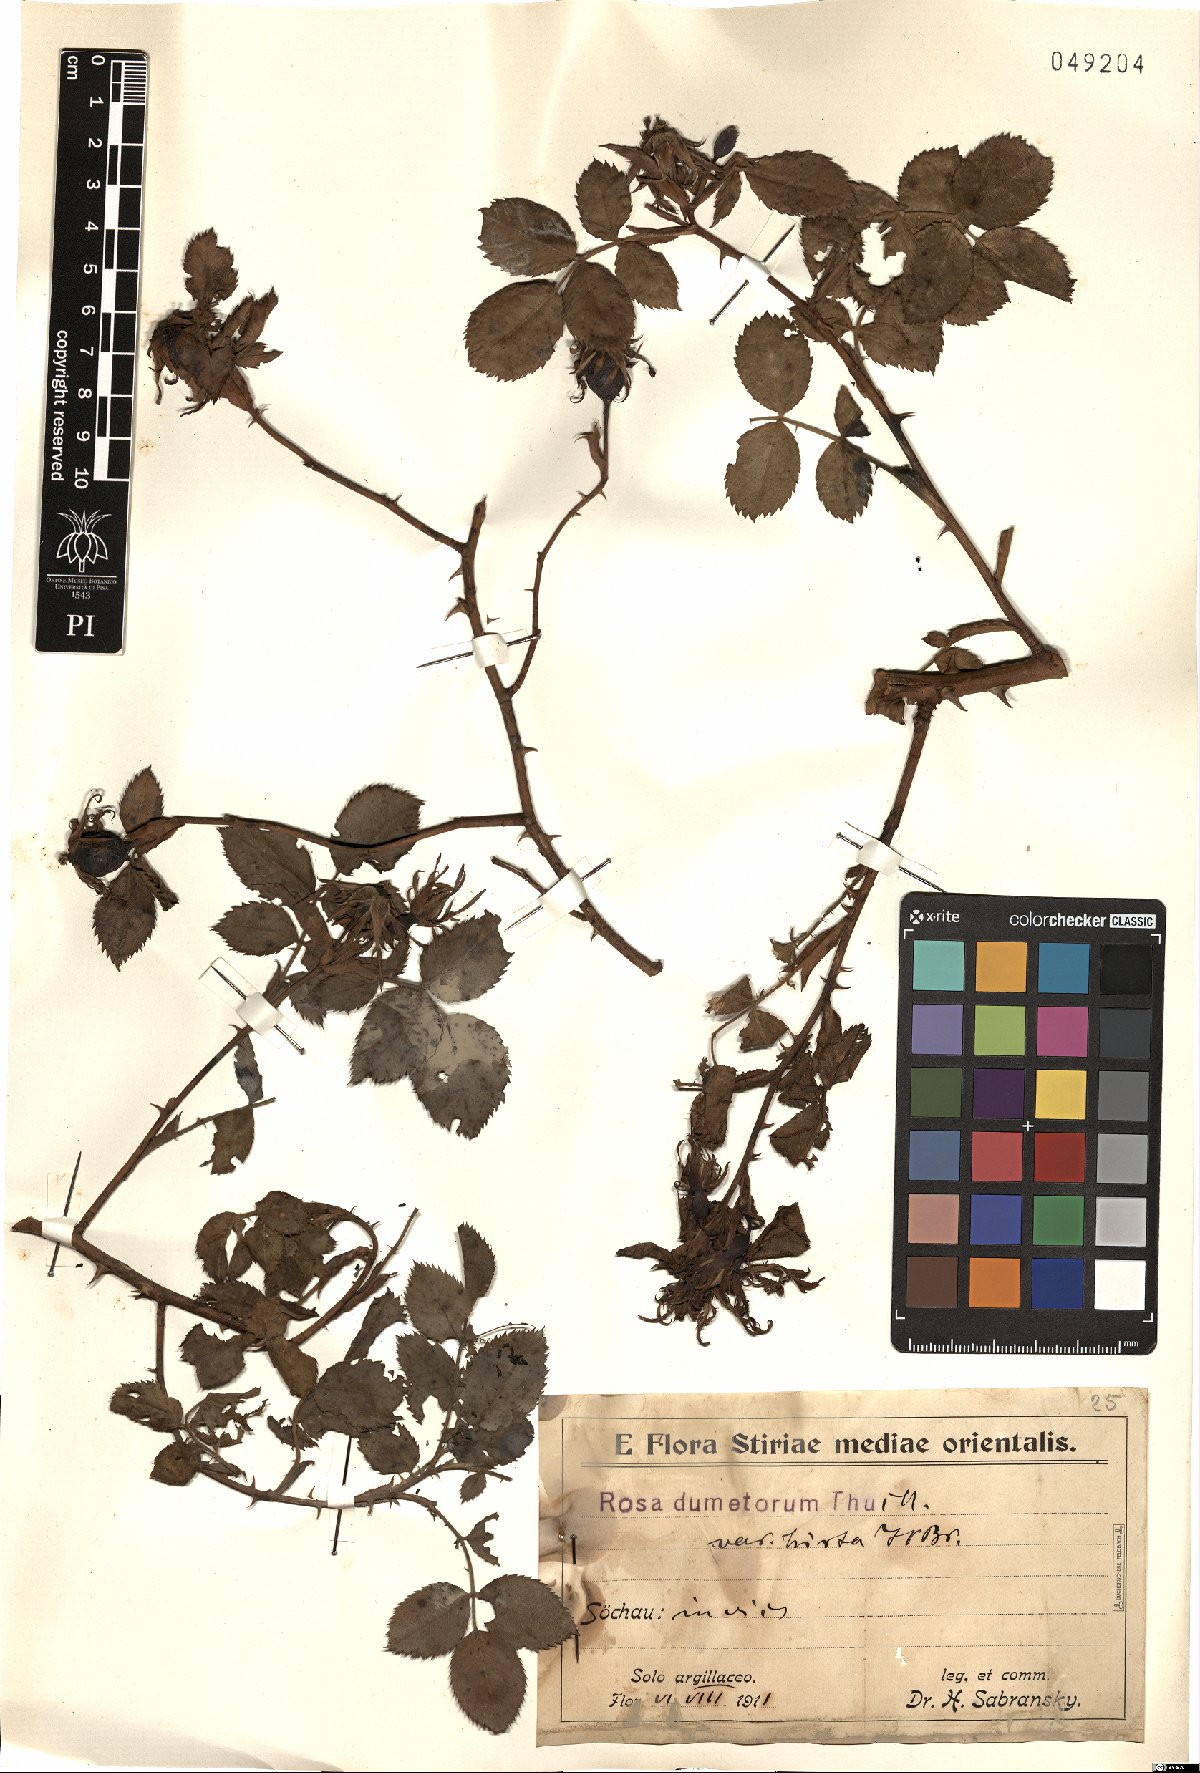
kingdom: Plantae
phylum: Tracheophyta
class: Magnoliopsida
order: Rosales
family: Rosaceae
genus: Rosa
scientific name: Rosa corymbifera
